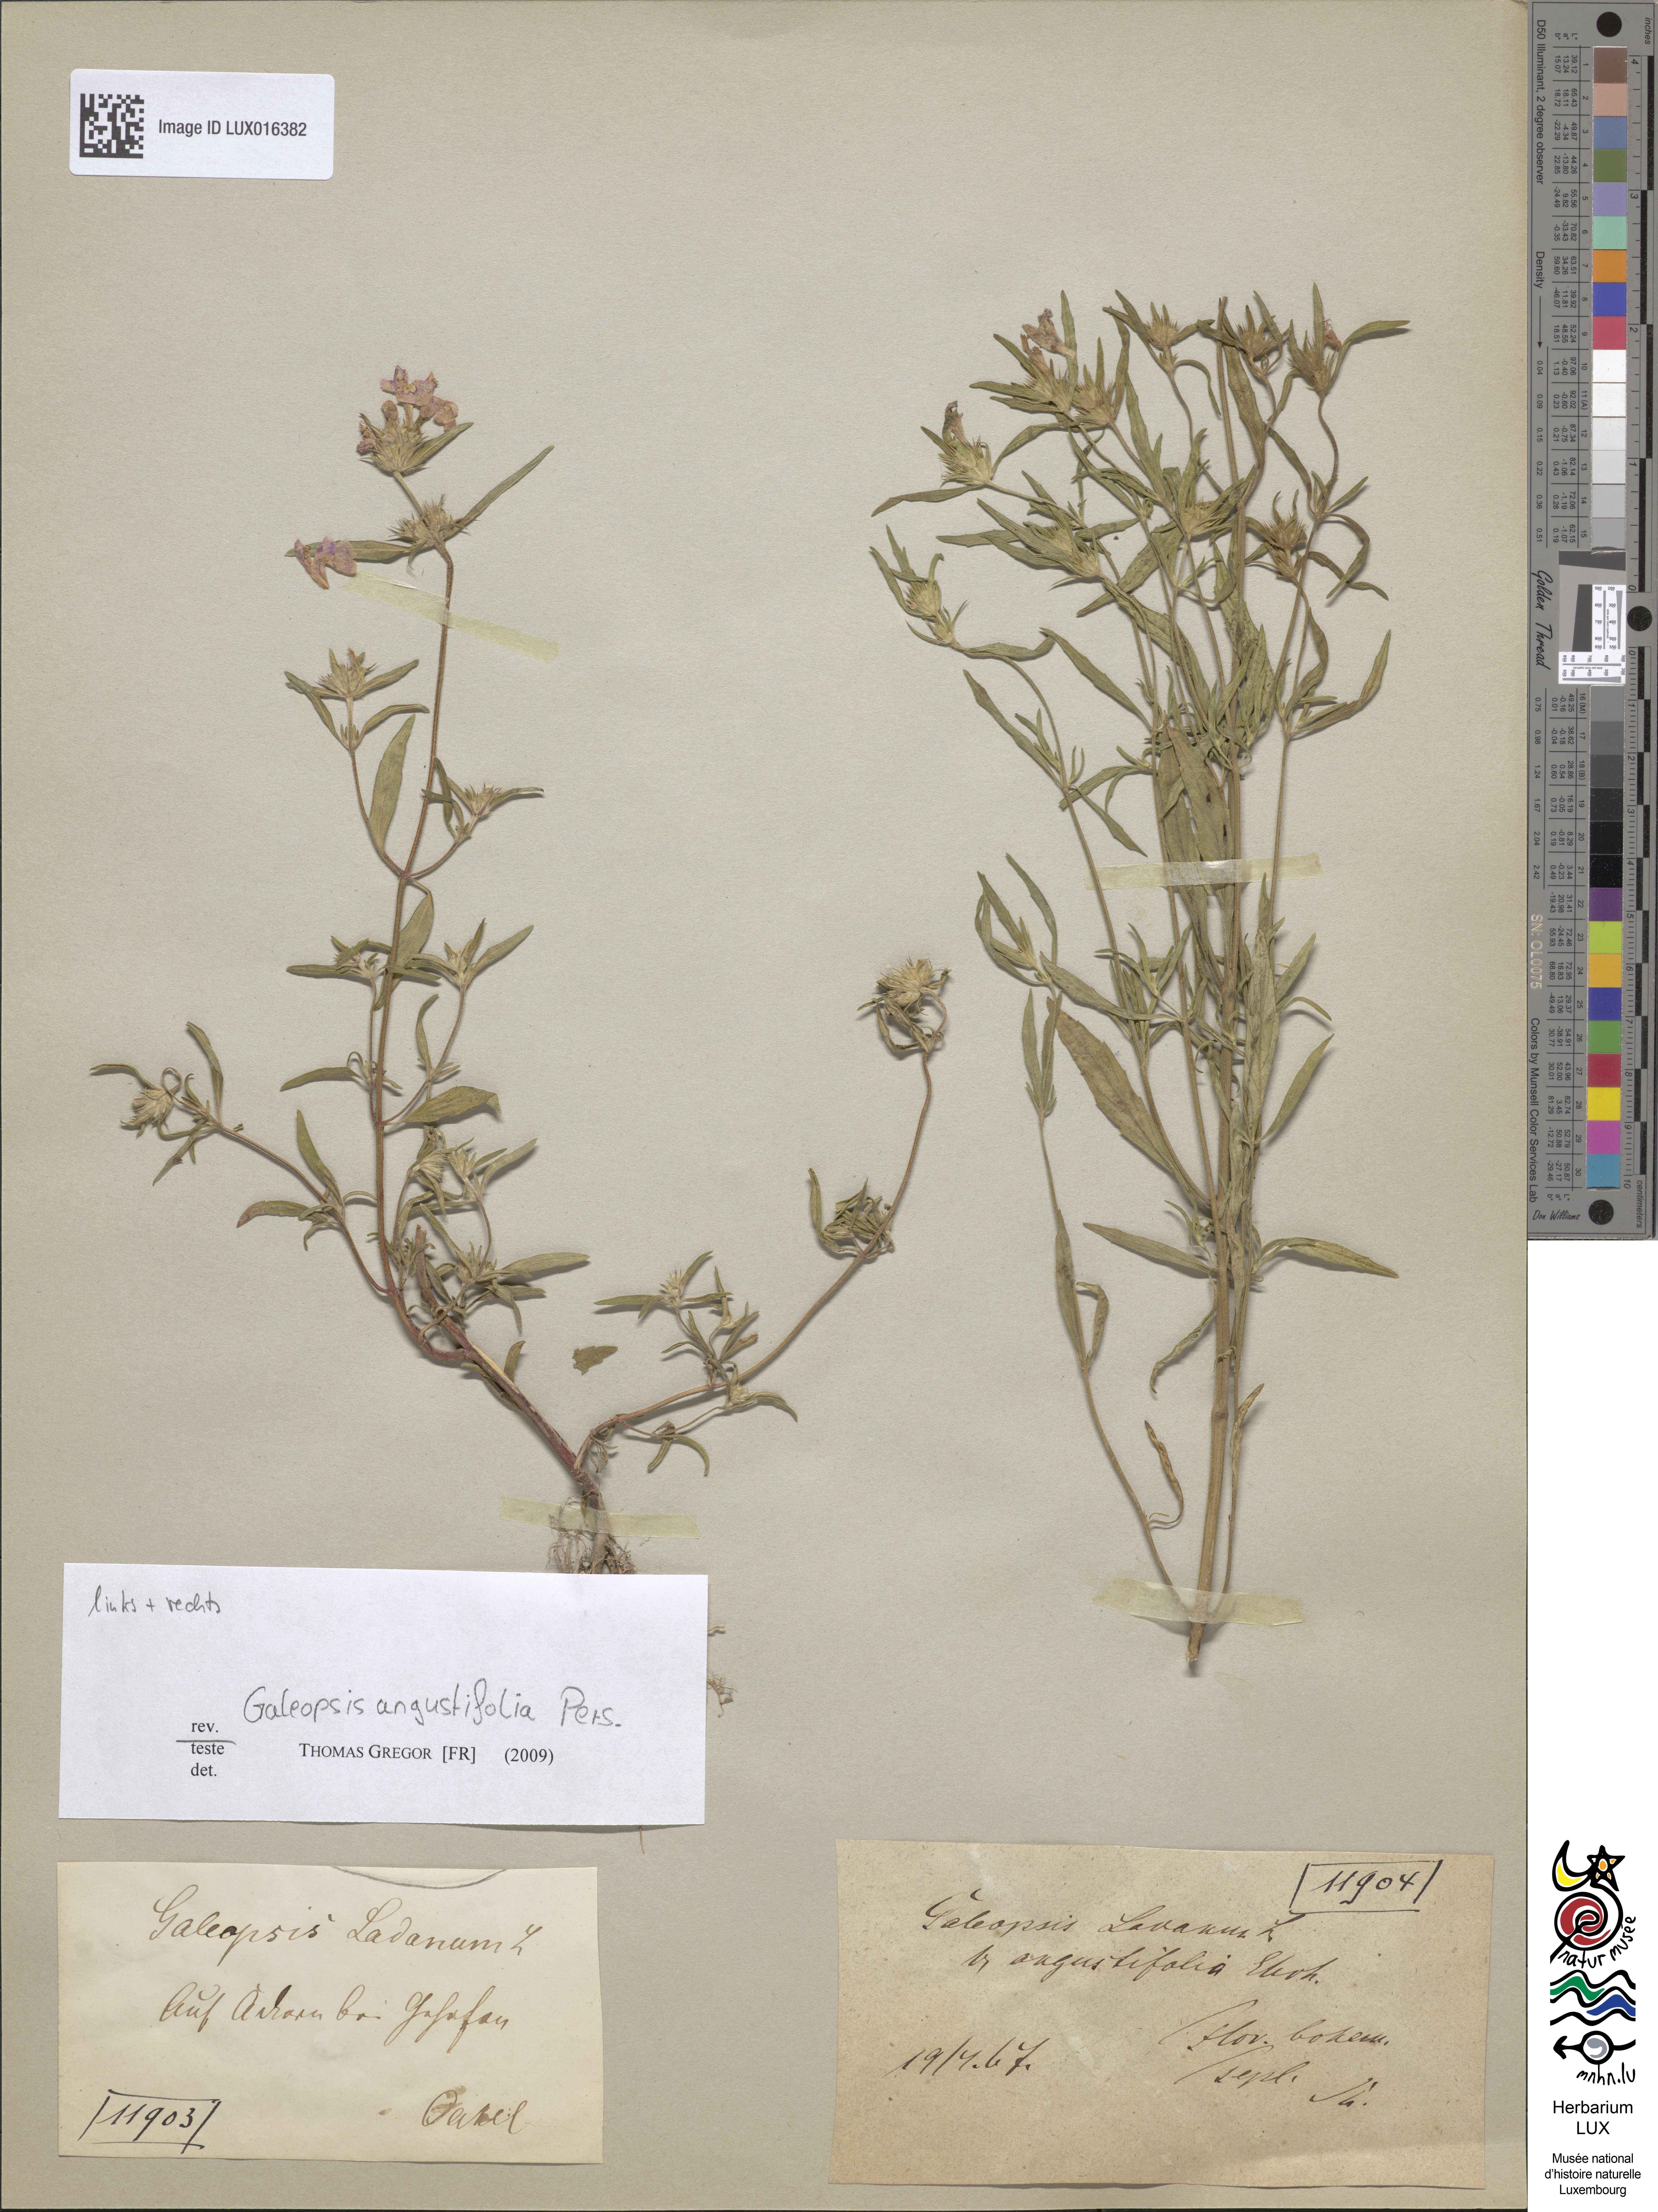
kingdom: Plantae
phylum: Tracheophyta
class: Magnoliopsida
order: Lamiales
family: Lamiaceae
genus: Galeopsis
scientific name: Galeopsis angustifolia
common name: Red hemp-nettle
